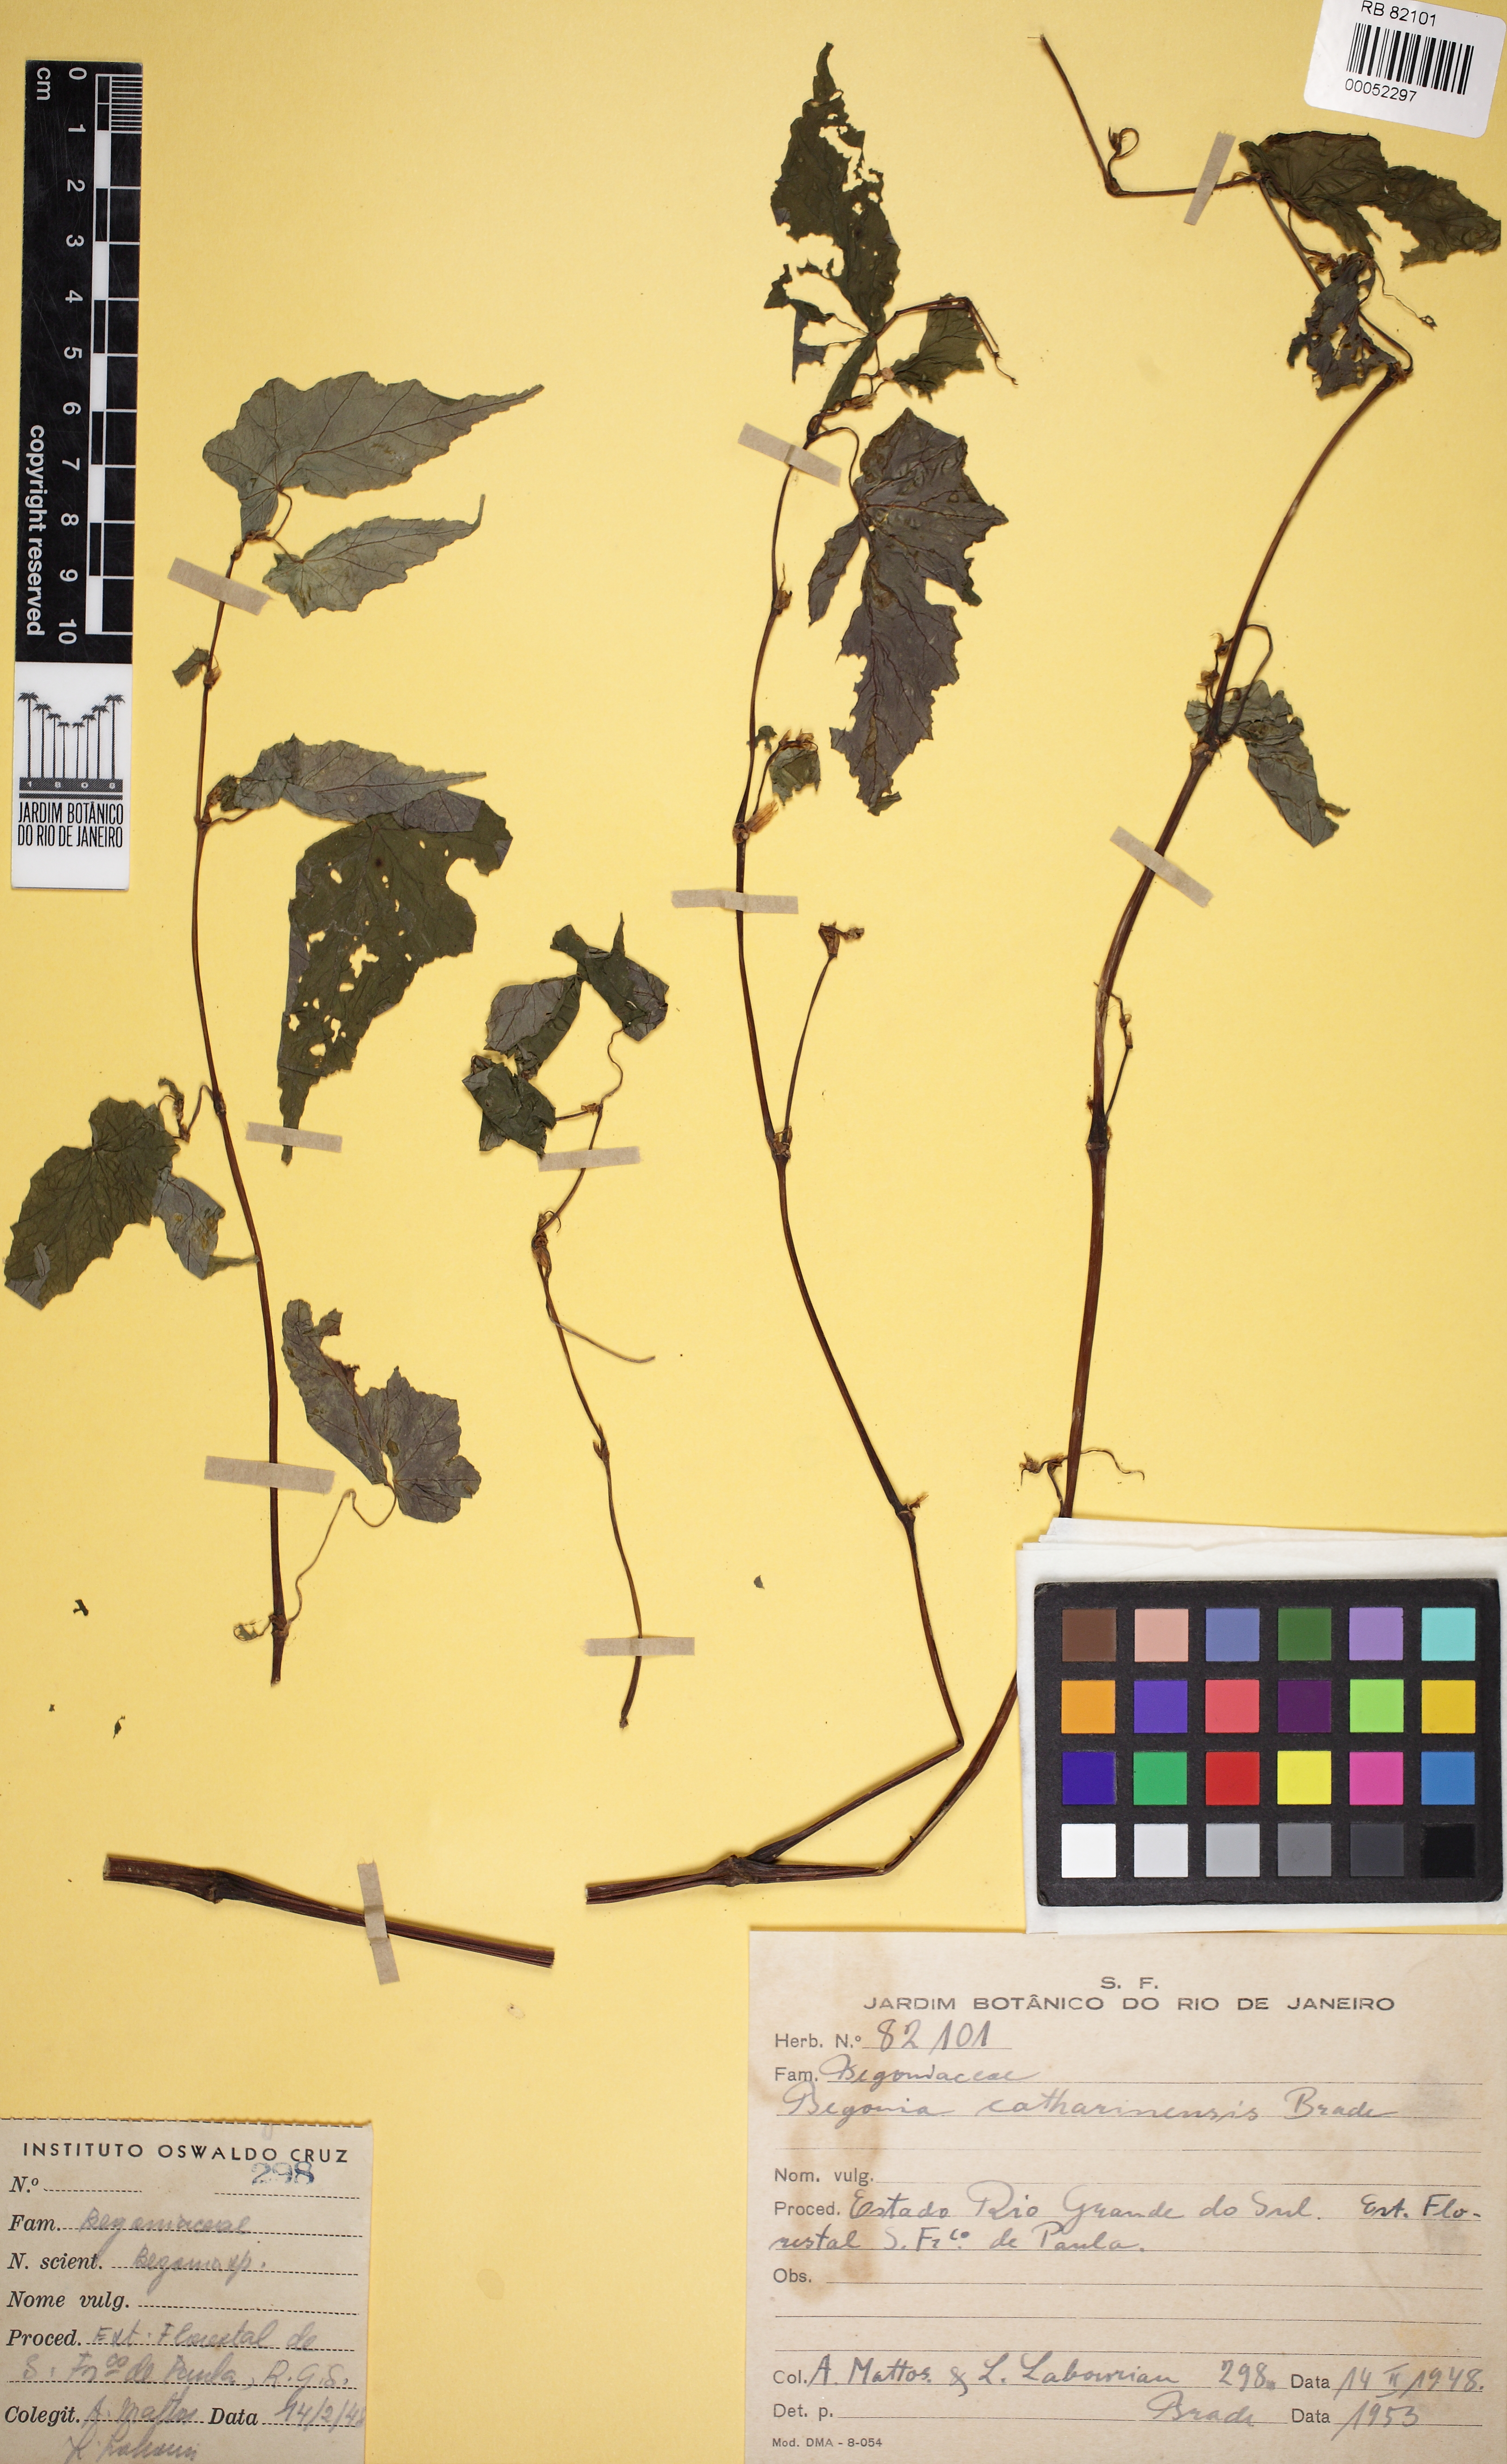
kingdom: Plantae
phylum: Tracheophyta
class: Magnoliopsida
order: Cucurbitales
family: Begoniaceae
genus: Begonia
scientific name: Begonia lineolata
